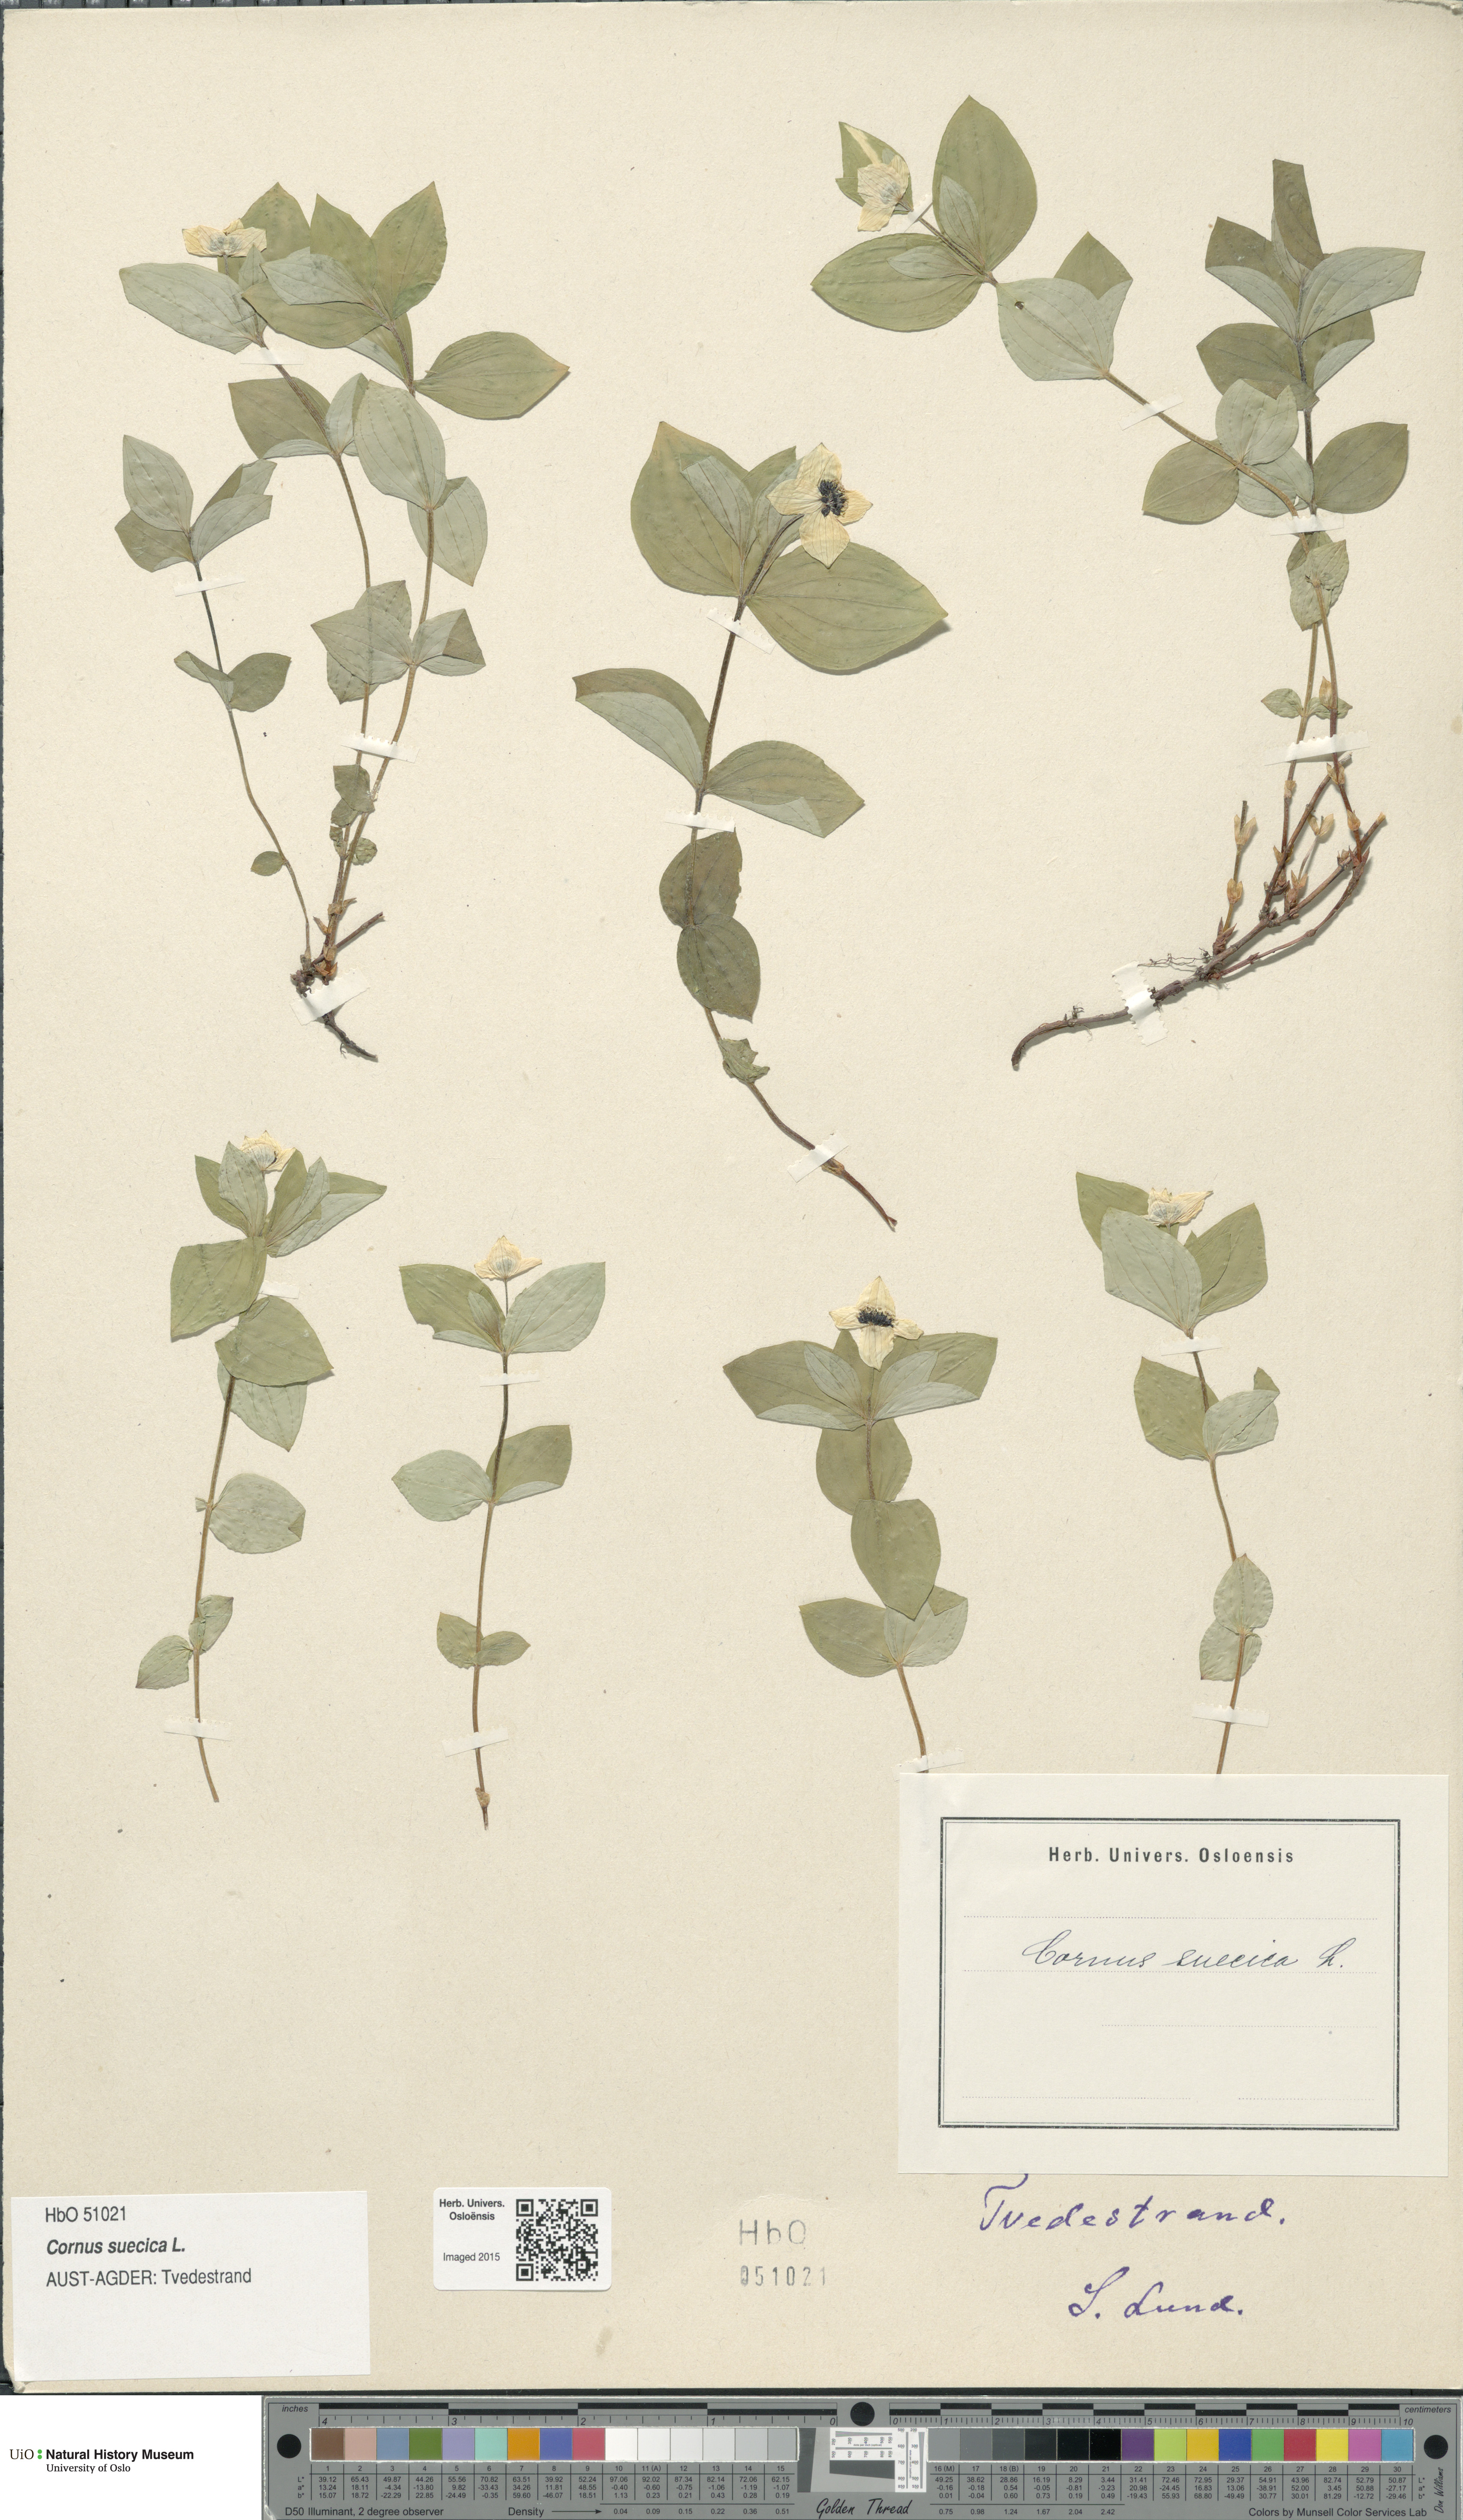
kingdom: Plantae
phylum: Tracheophyta
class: Magnoliopsida
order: Cornales
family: Cornaceae
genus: Cornus
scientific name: Cornus suecica
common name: Dwarf cornel
